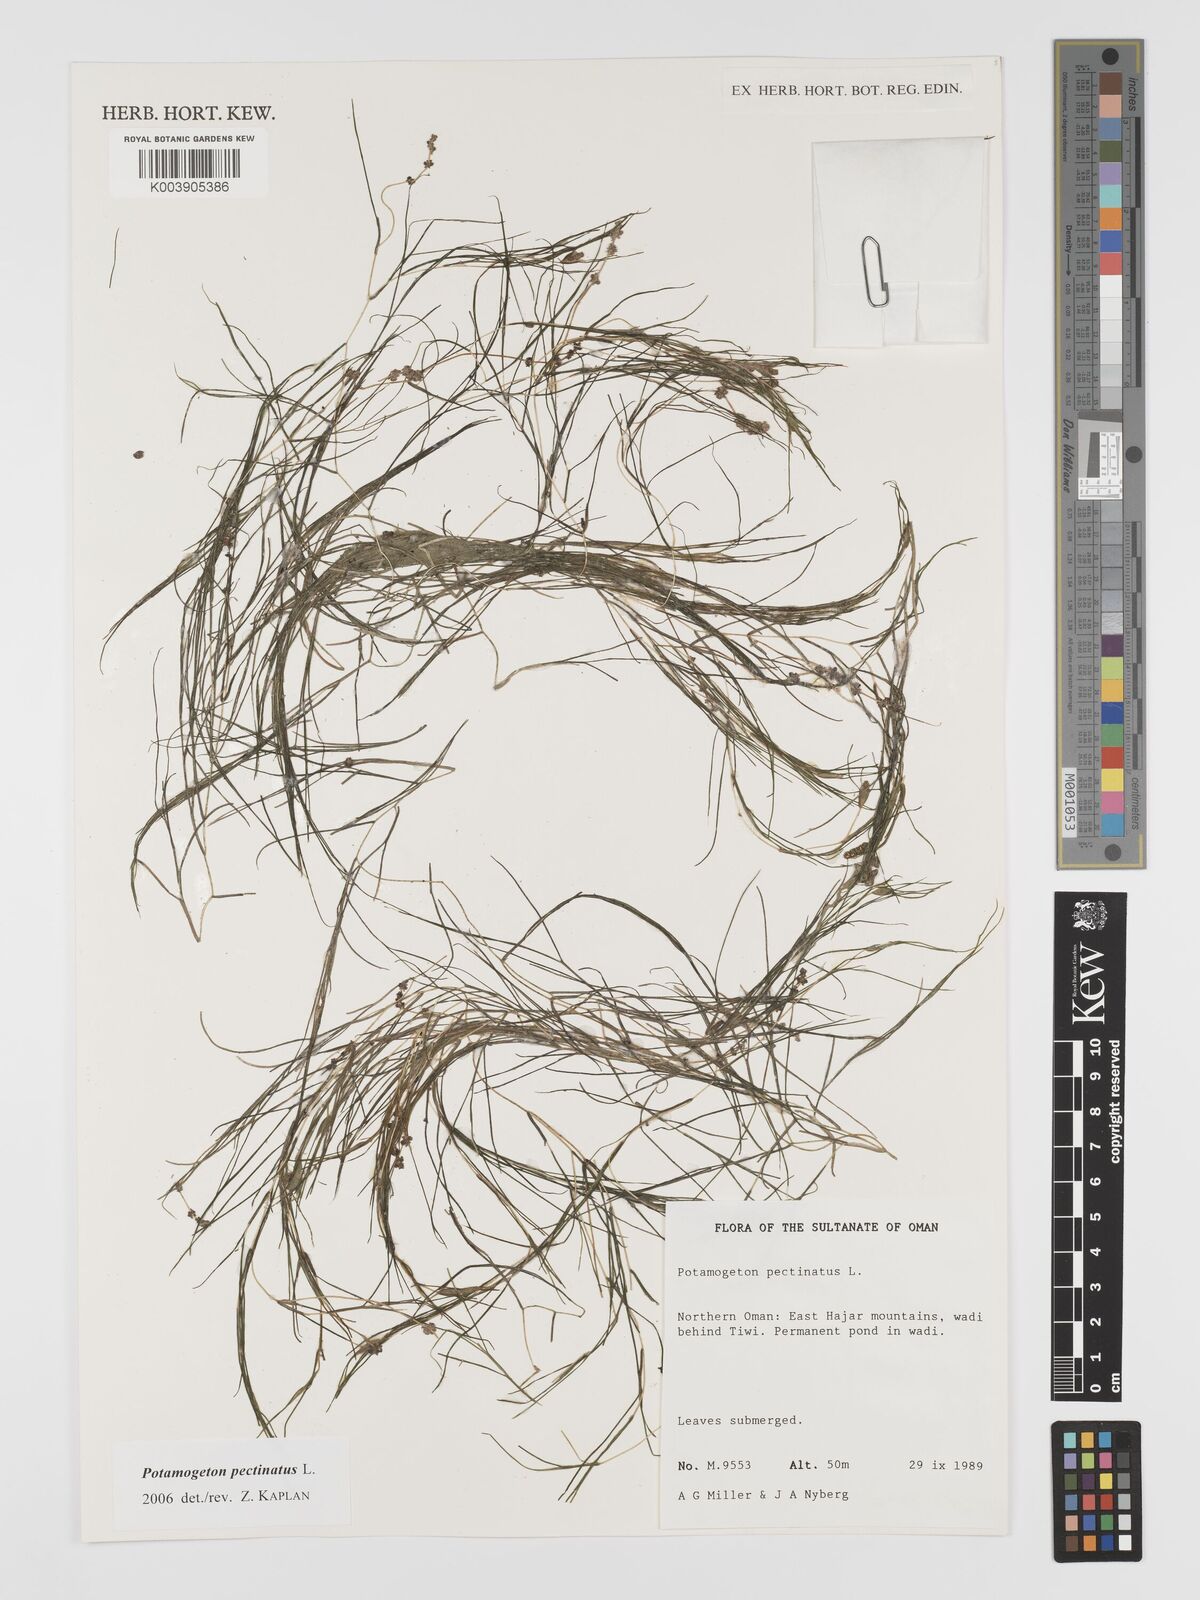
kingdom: Plantae
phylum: Tracheophyta
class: Liliopsida
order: Alismatales
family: Potamogetonaceae
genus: Stuckenia
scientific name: Stuckenia pectinata
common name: Sago pondweed
